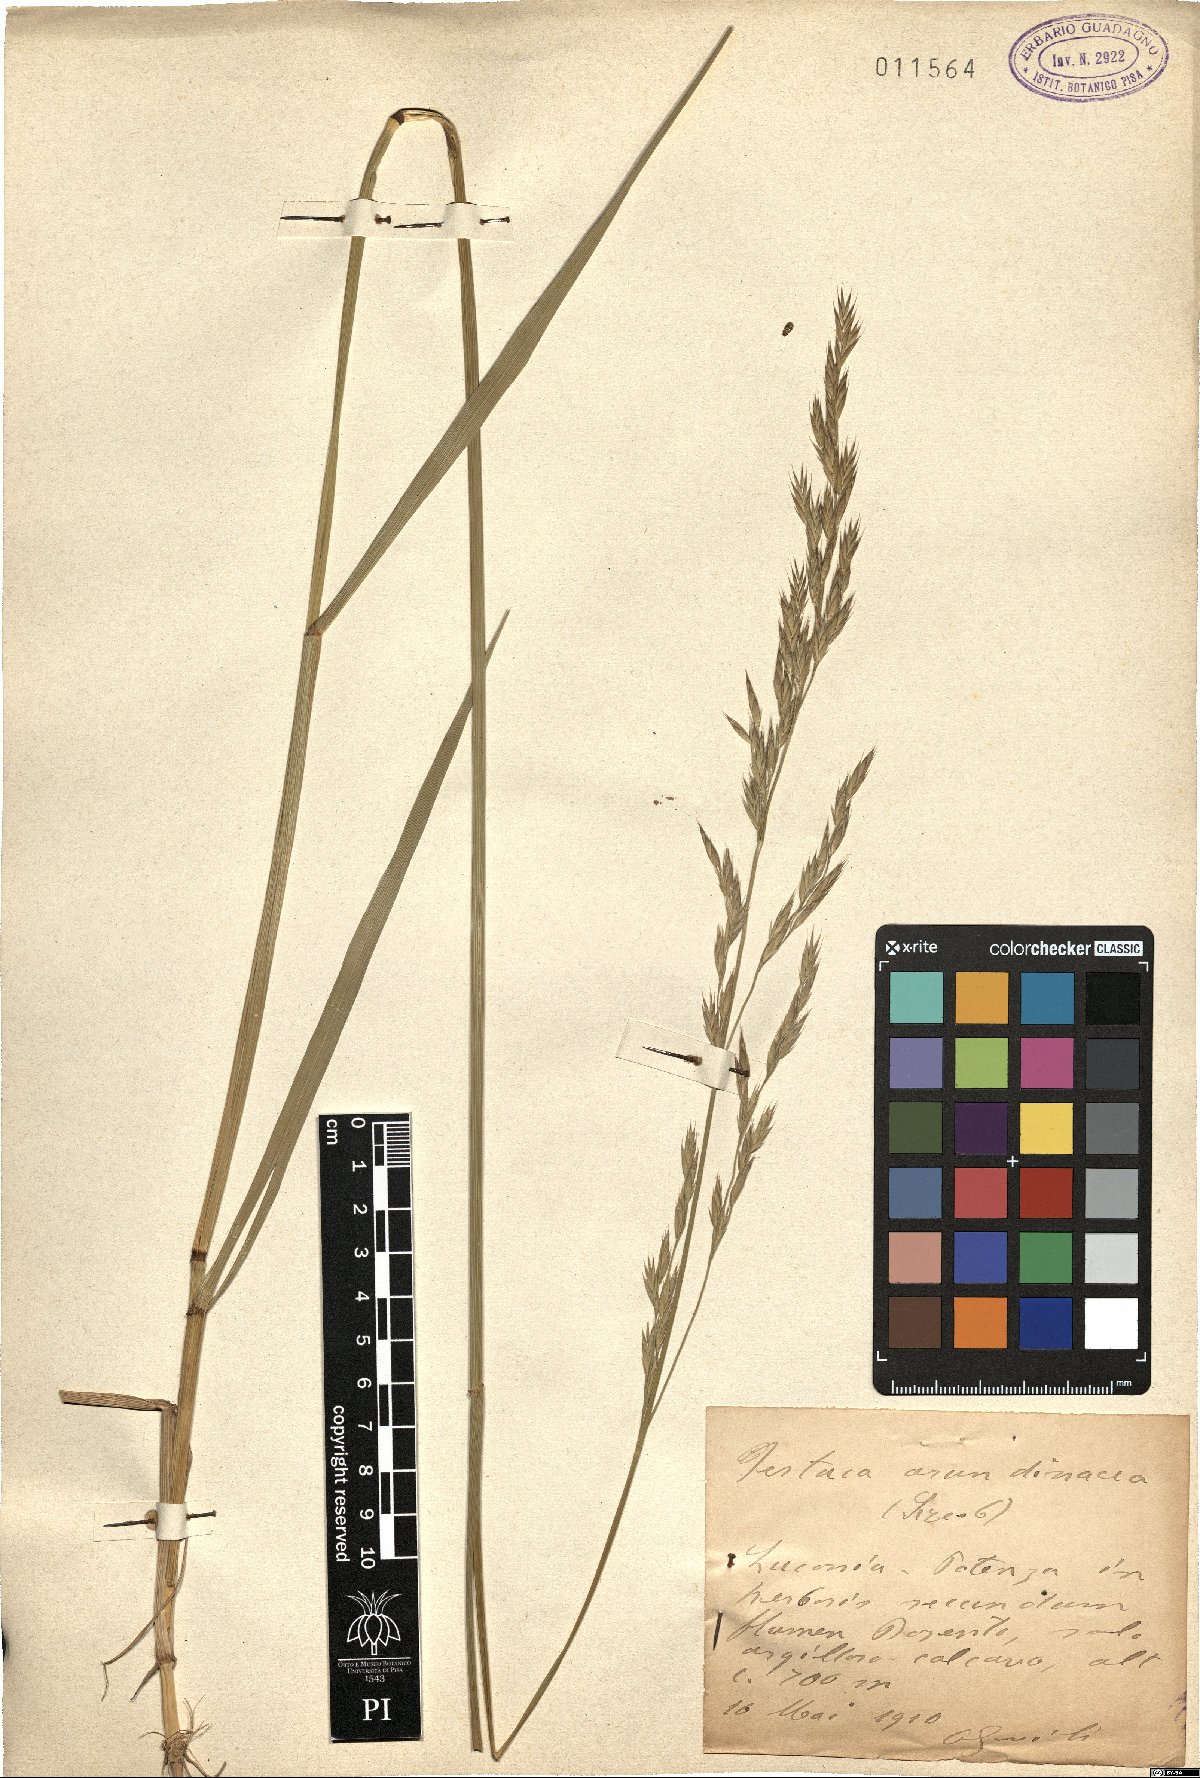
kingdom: Plantae
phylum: Tracheophyta
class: Liliopsida
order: Poales
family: Poaceae
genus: Lolium
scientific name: Lolium arundinaceum
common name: Reed fescue
